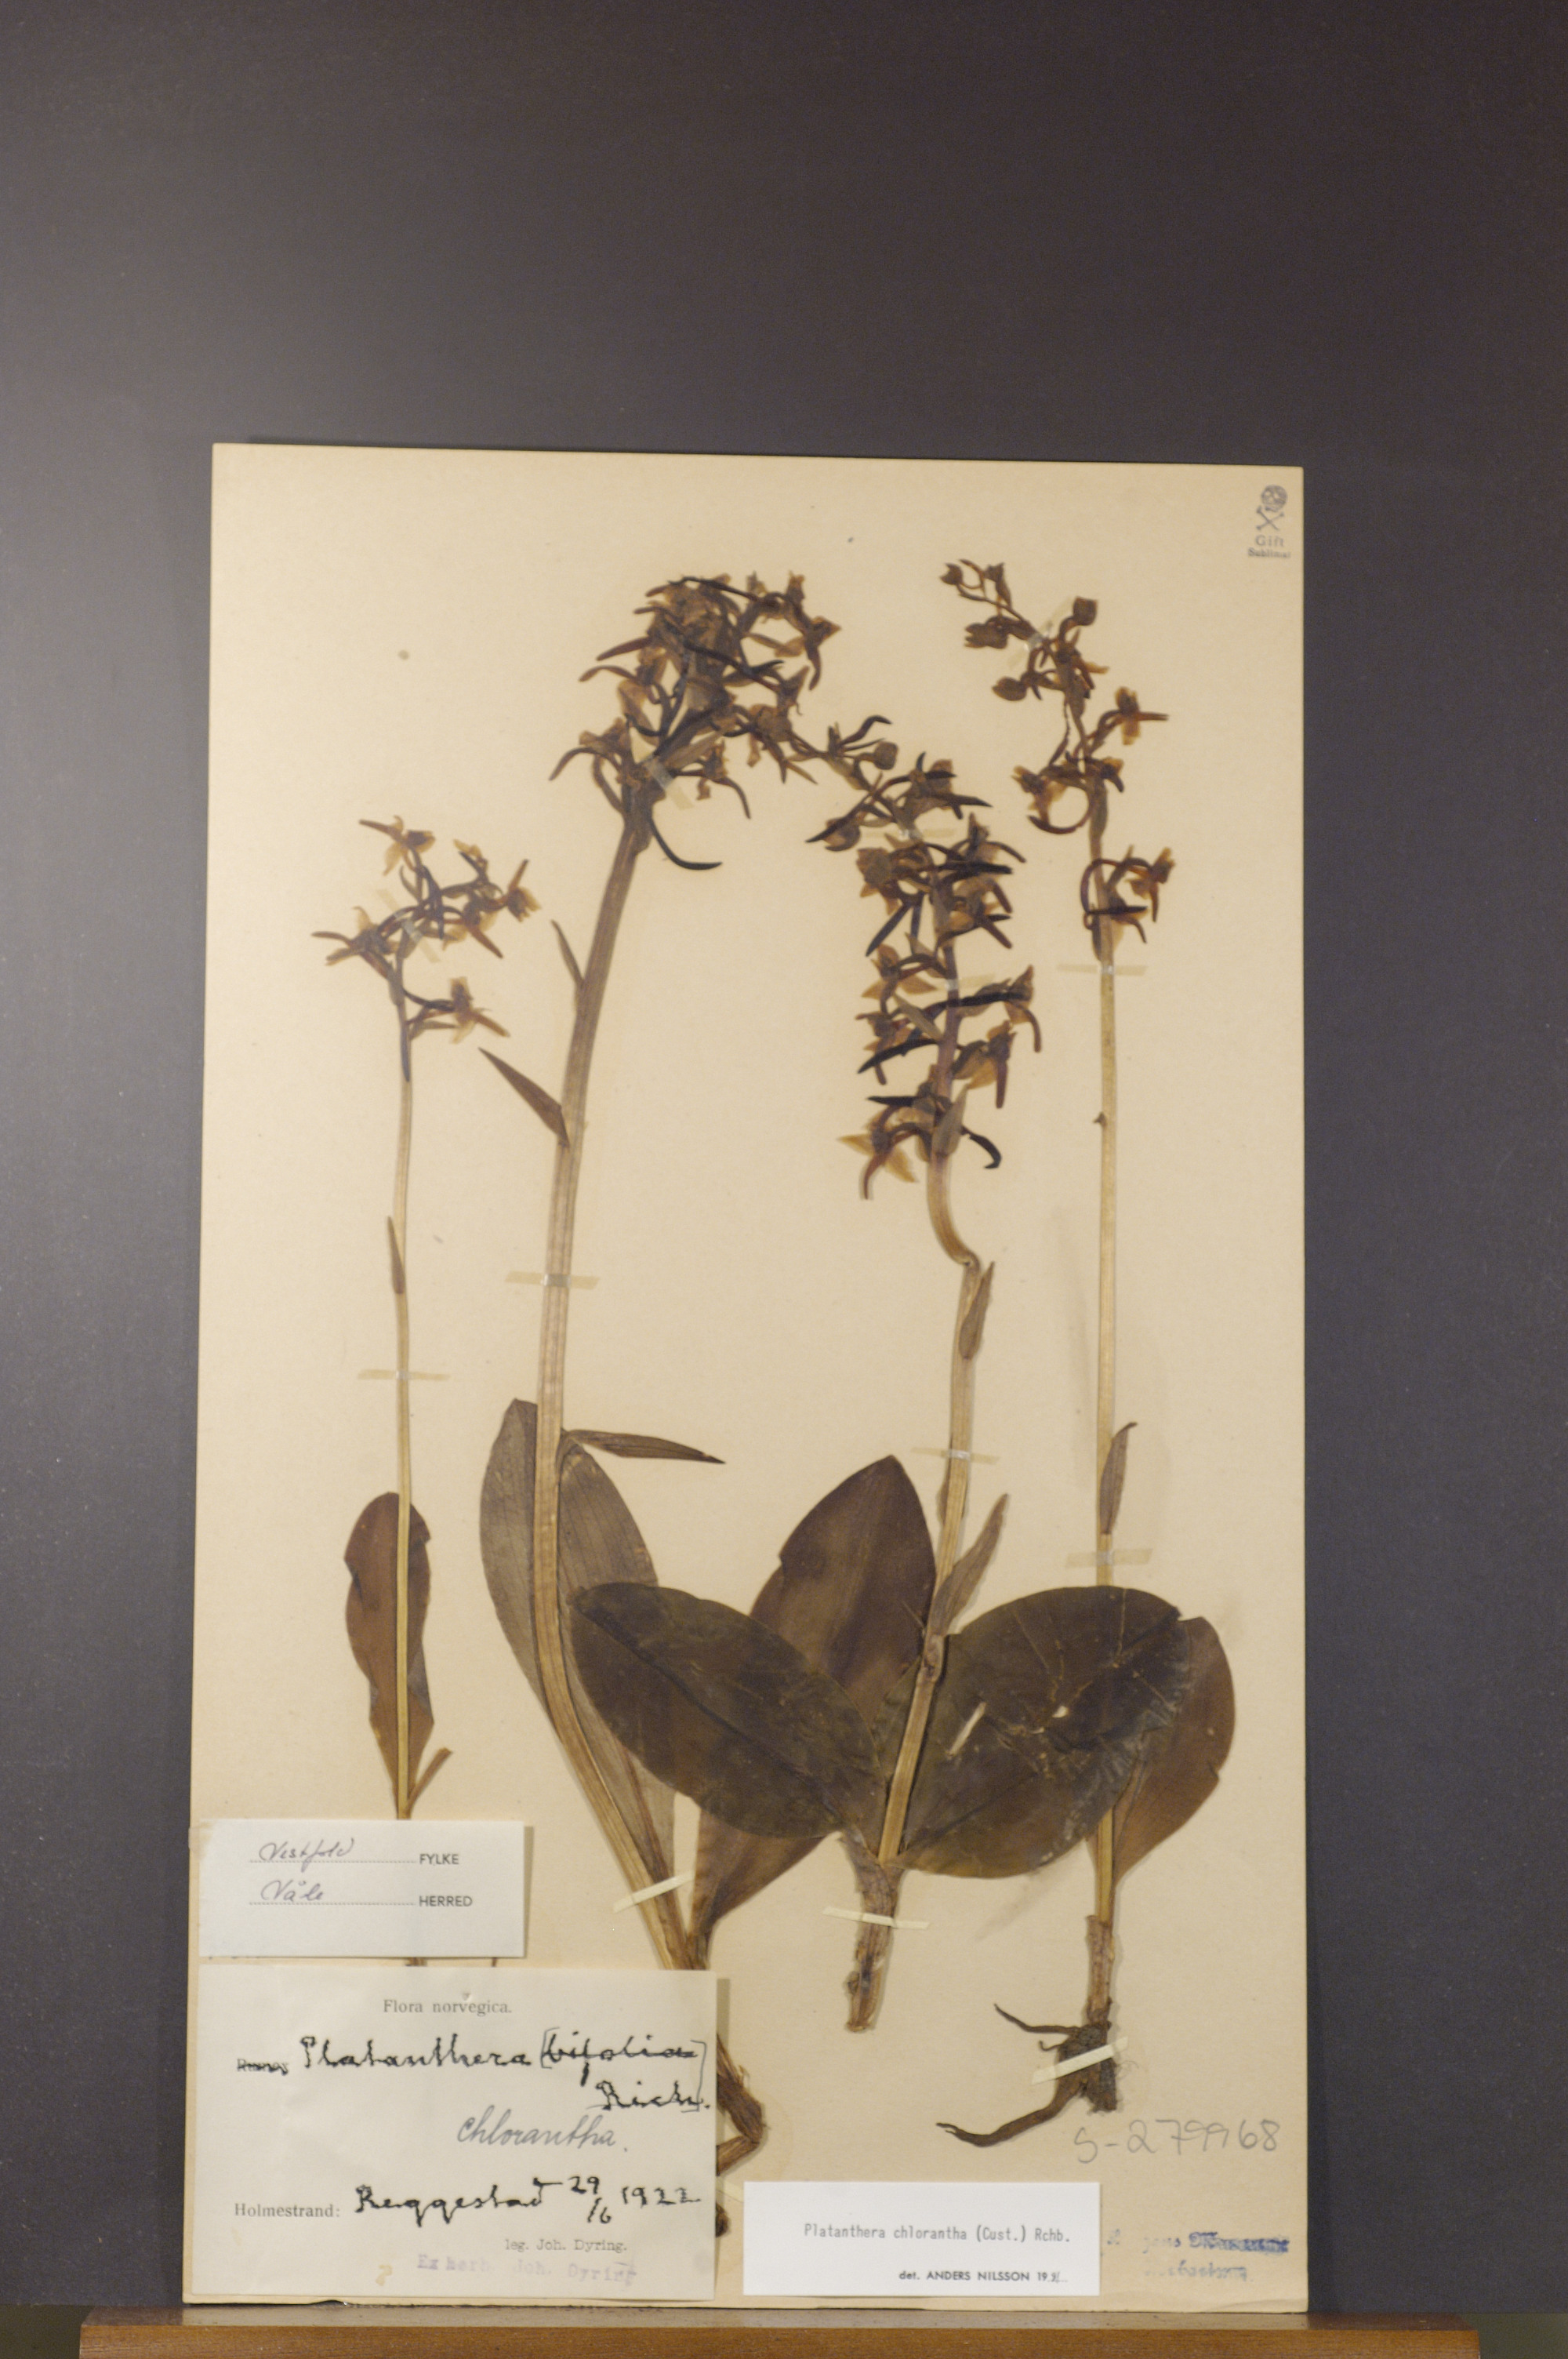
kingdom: Plantae
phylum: Tracheophyta
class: Liliopsida
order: Asparagales
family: Orchidaceae
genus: Platanthera
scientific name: Platanthera chlorantha
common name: Greater butterfly-orchid
